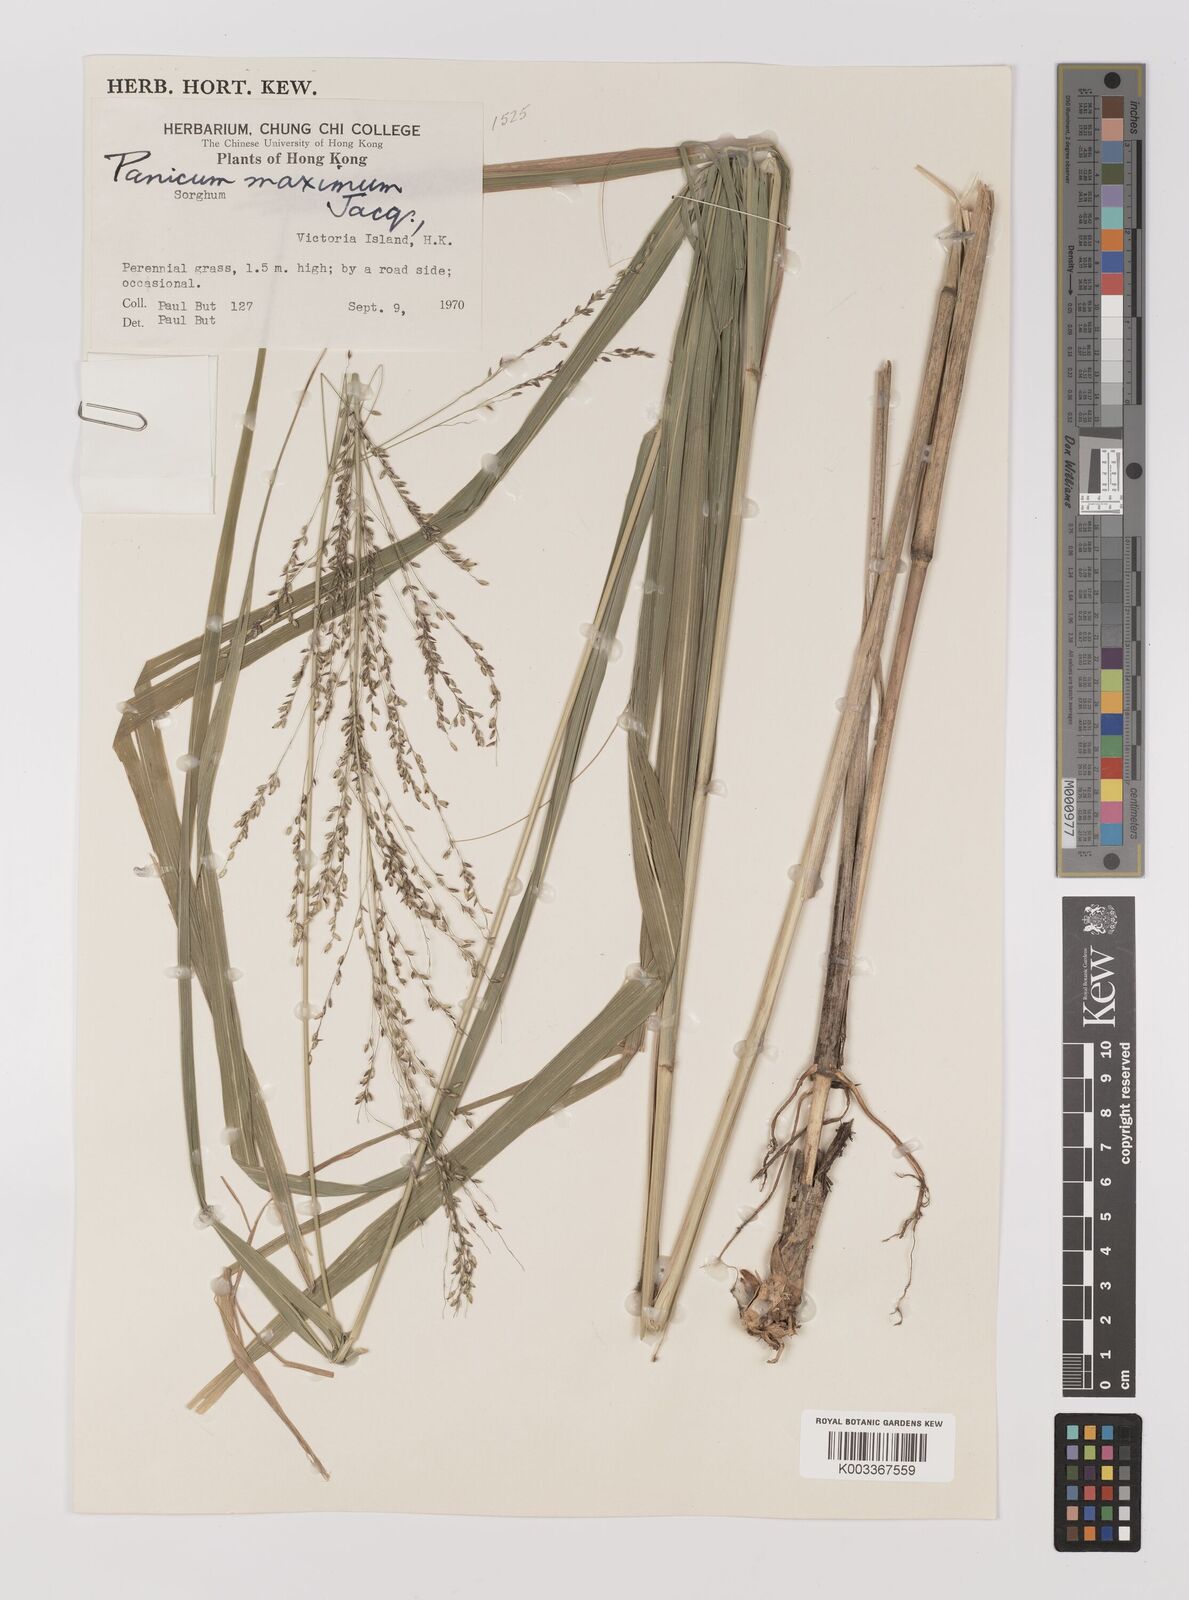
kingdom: Plantae
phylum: Tracheophyta
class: Liliopsida
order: Poales
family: Poaceae
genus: Megathyrsus
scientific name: Megathyrsus maximus
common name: Guineagrass
